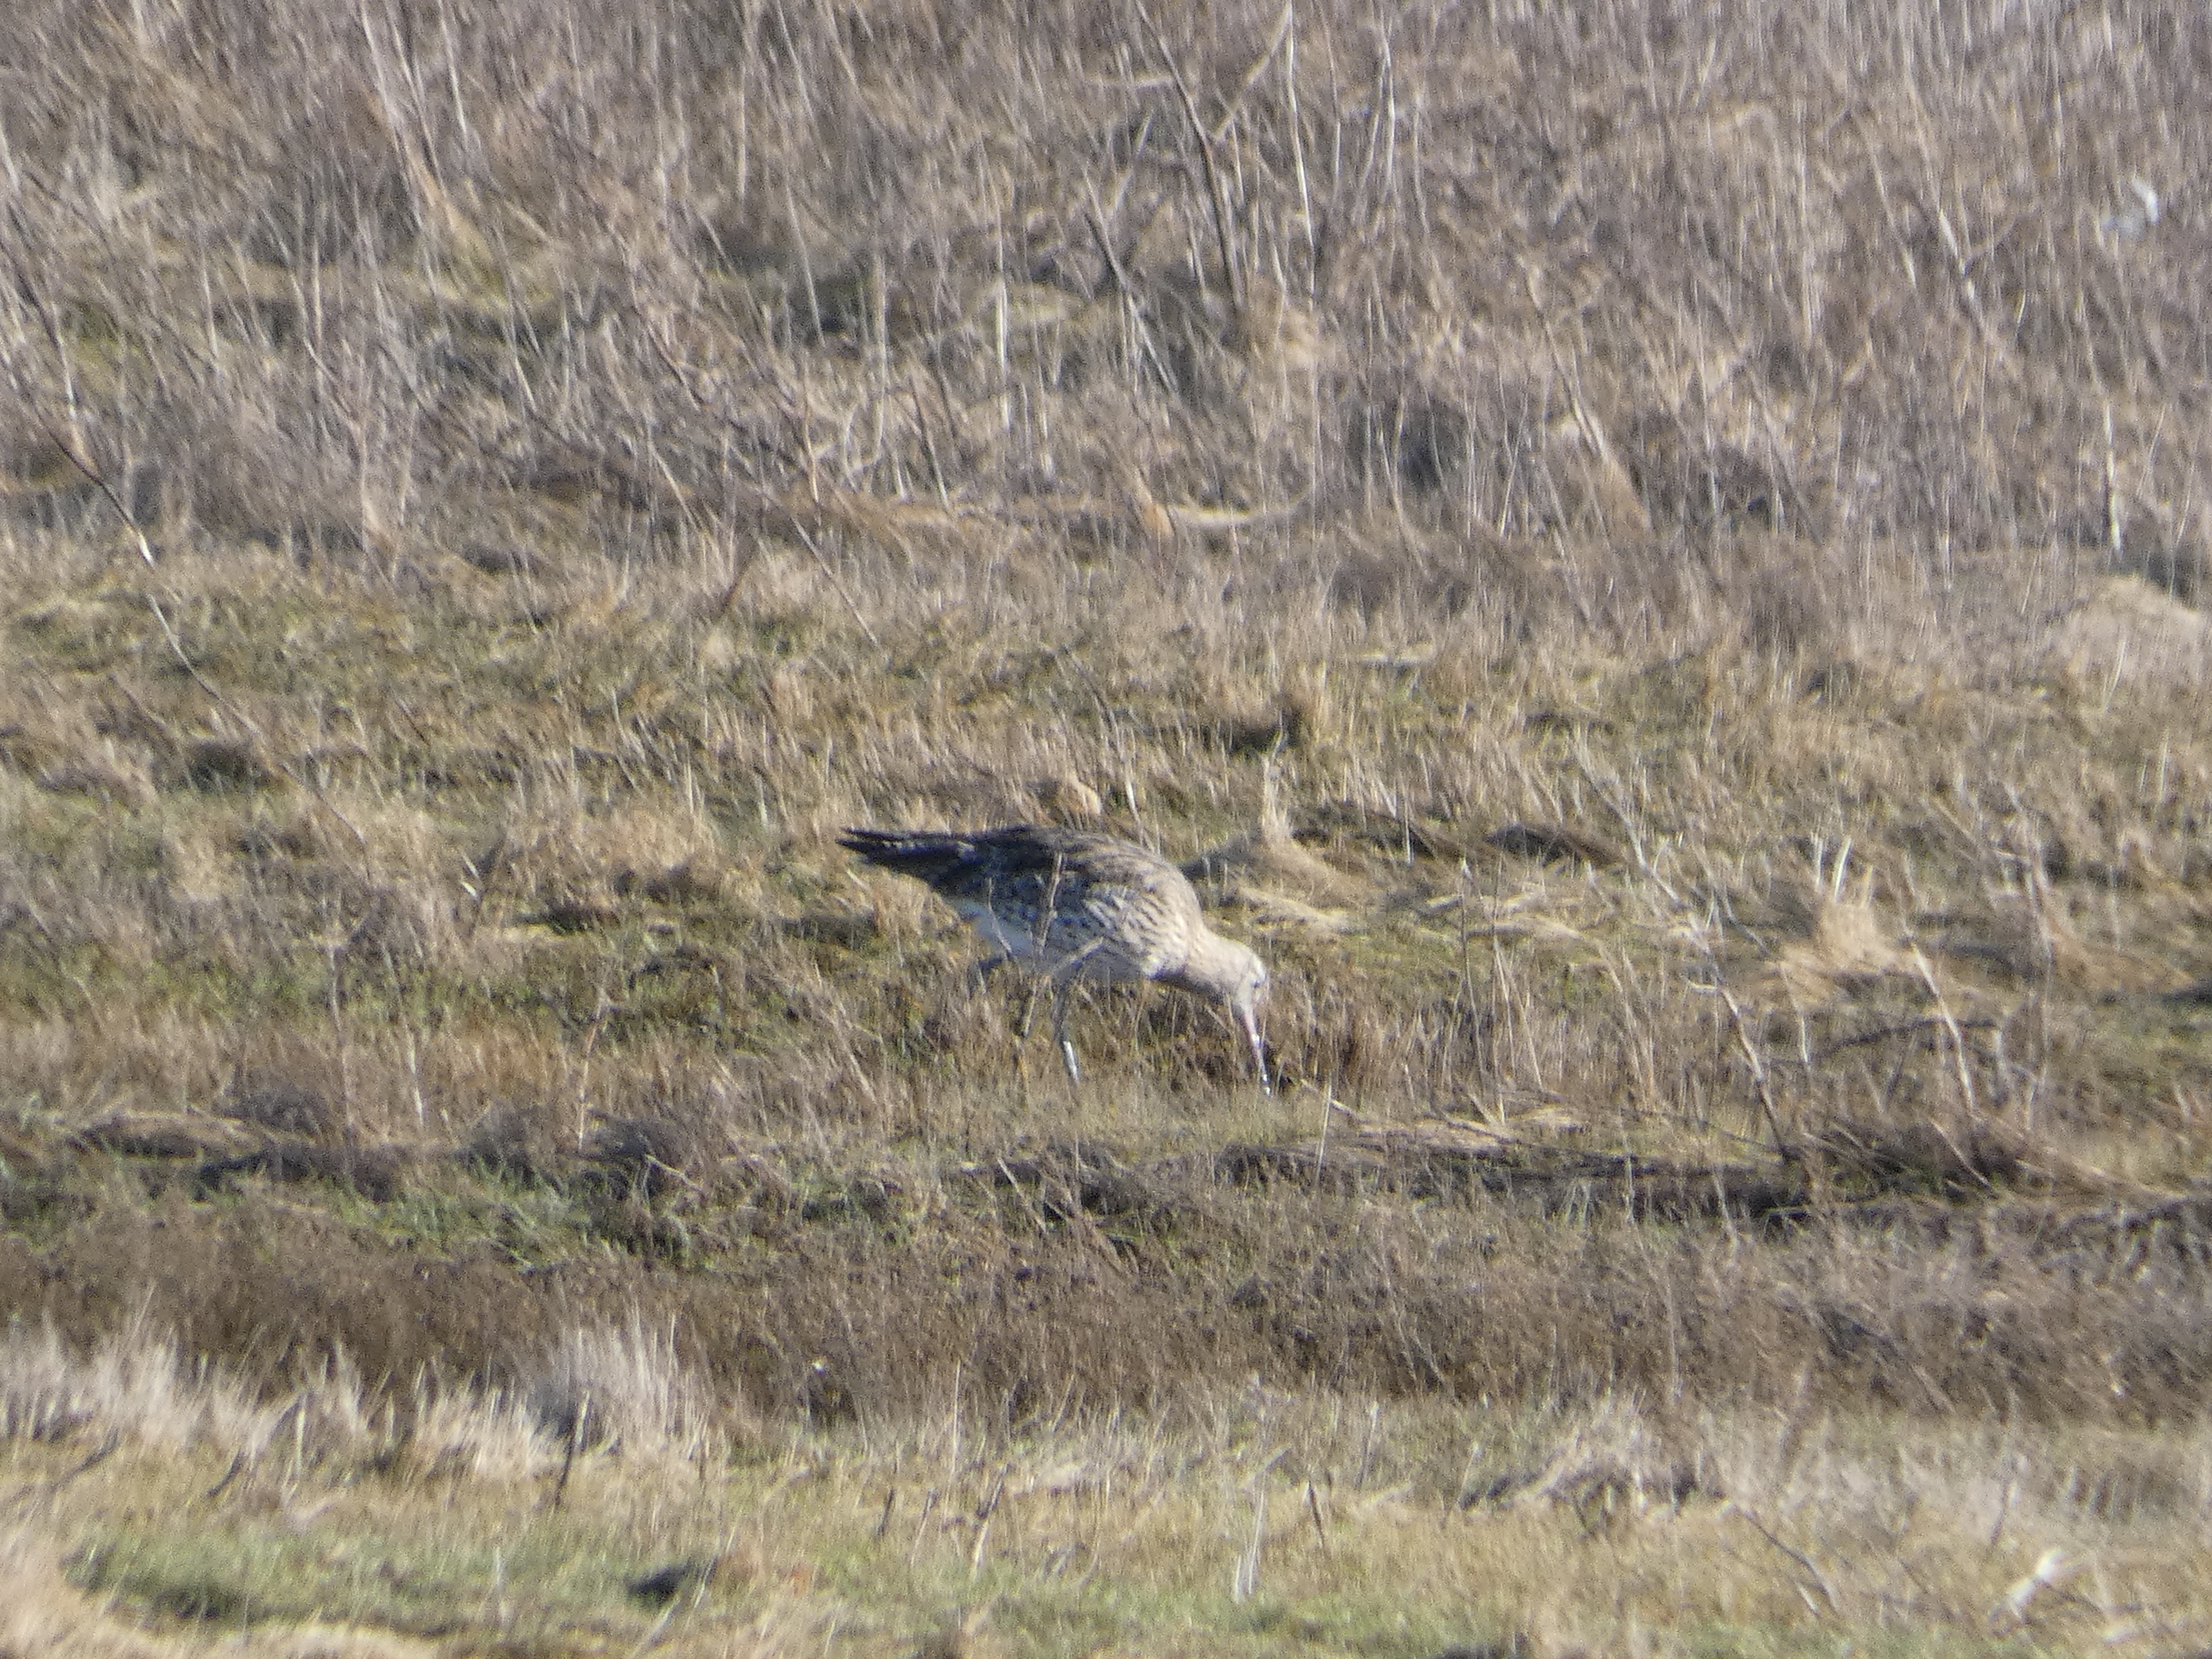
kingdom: Animalia
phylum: Chordata
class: Aves
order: Charadriiformes
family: Scolopacidae
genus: Numenius
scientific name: Numenius arquata
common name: Storspove
